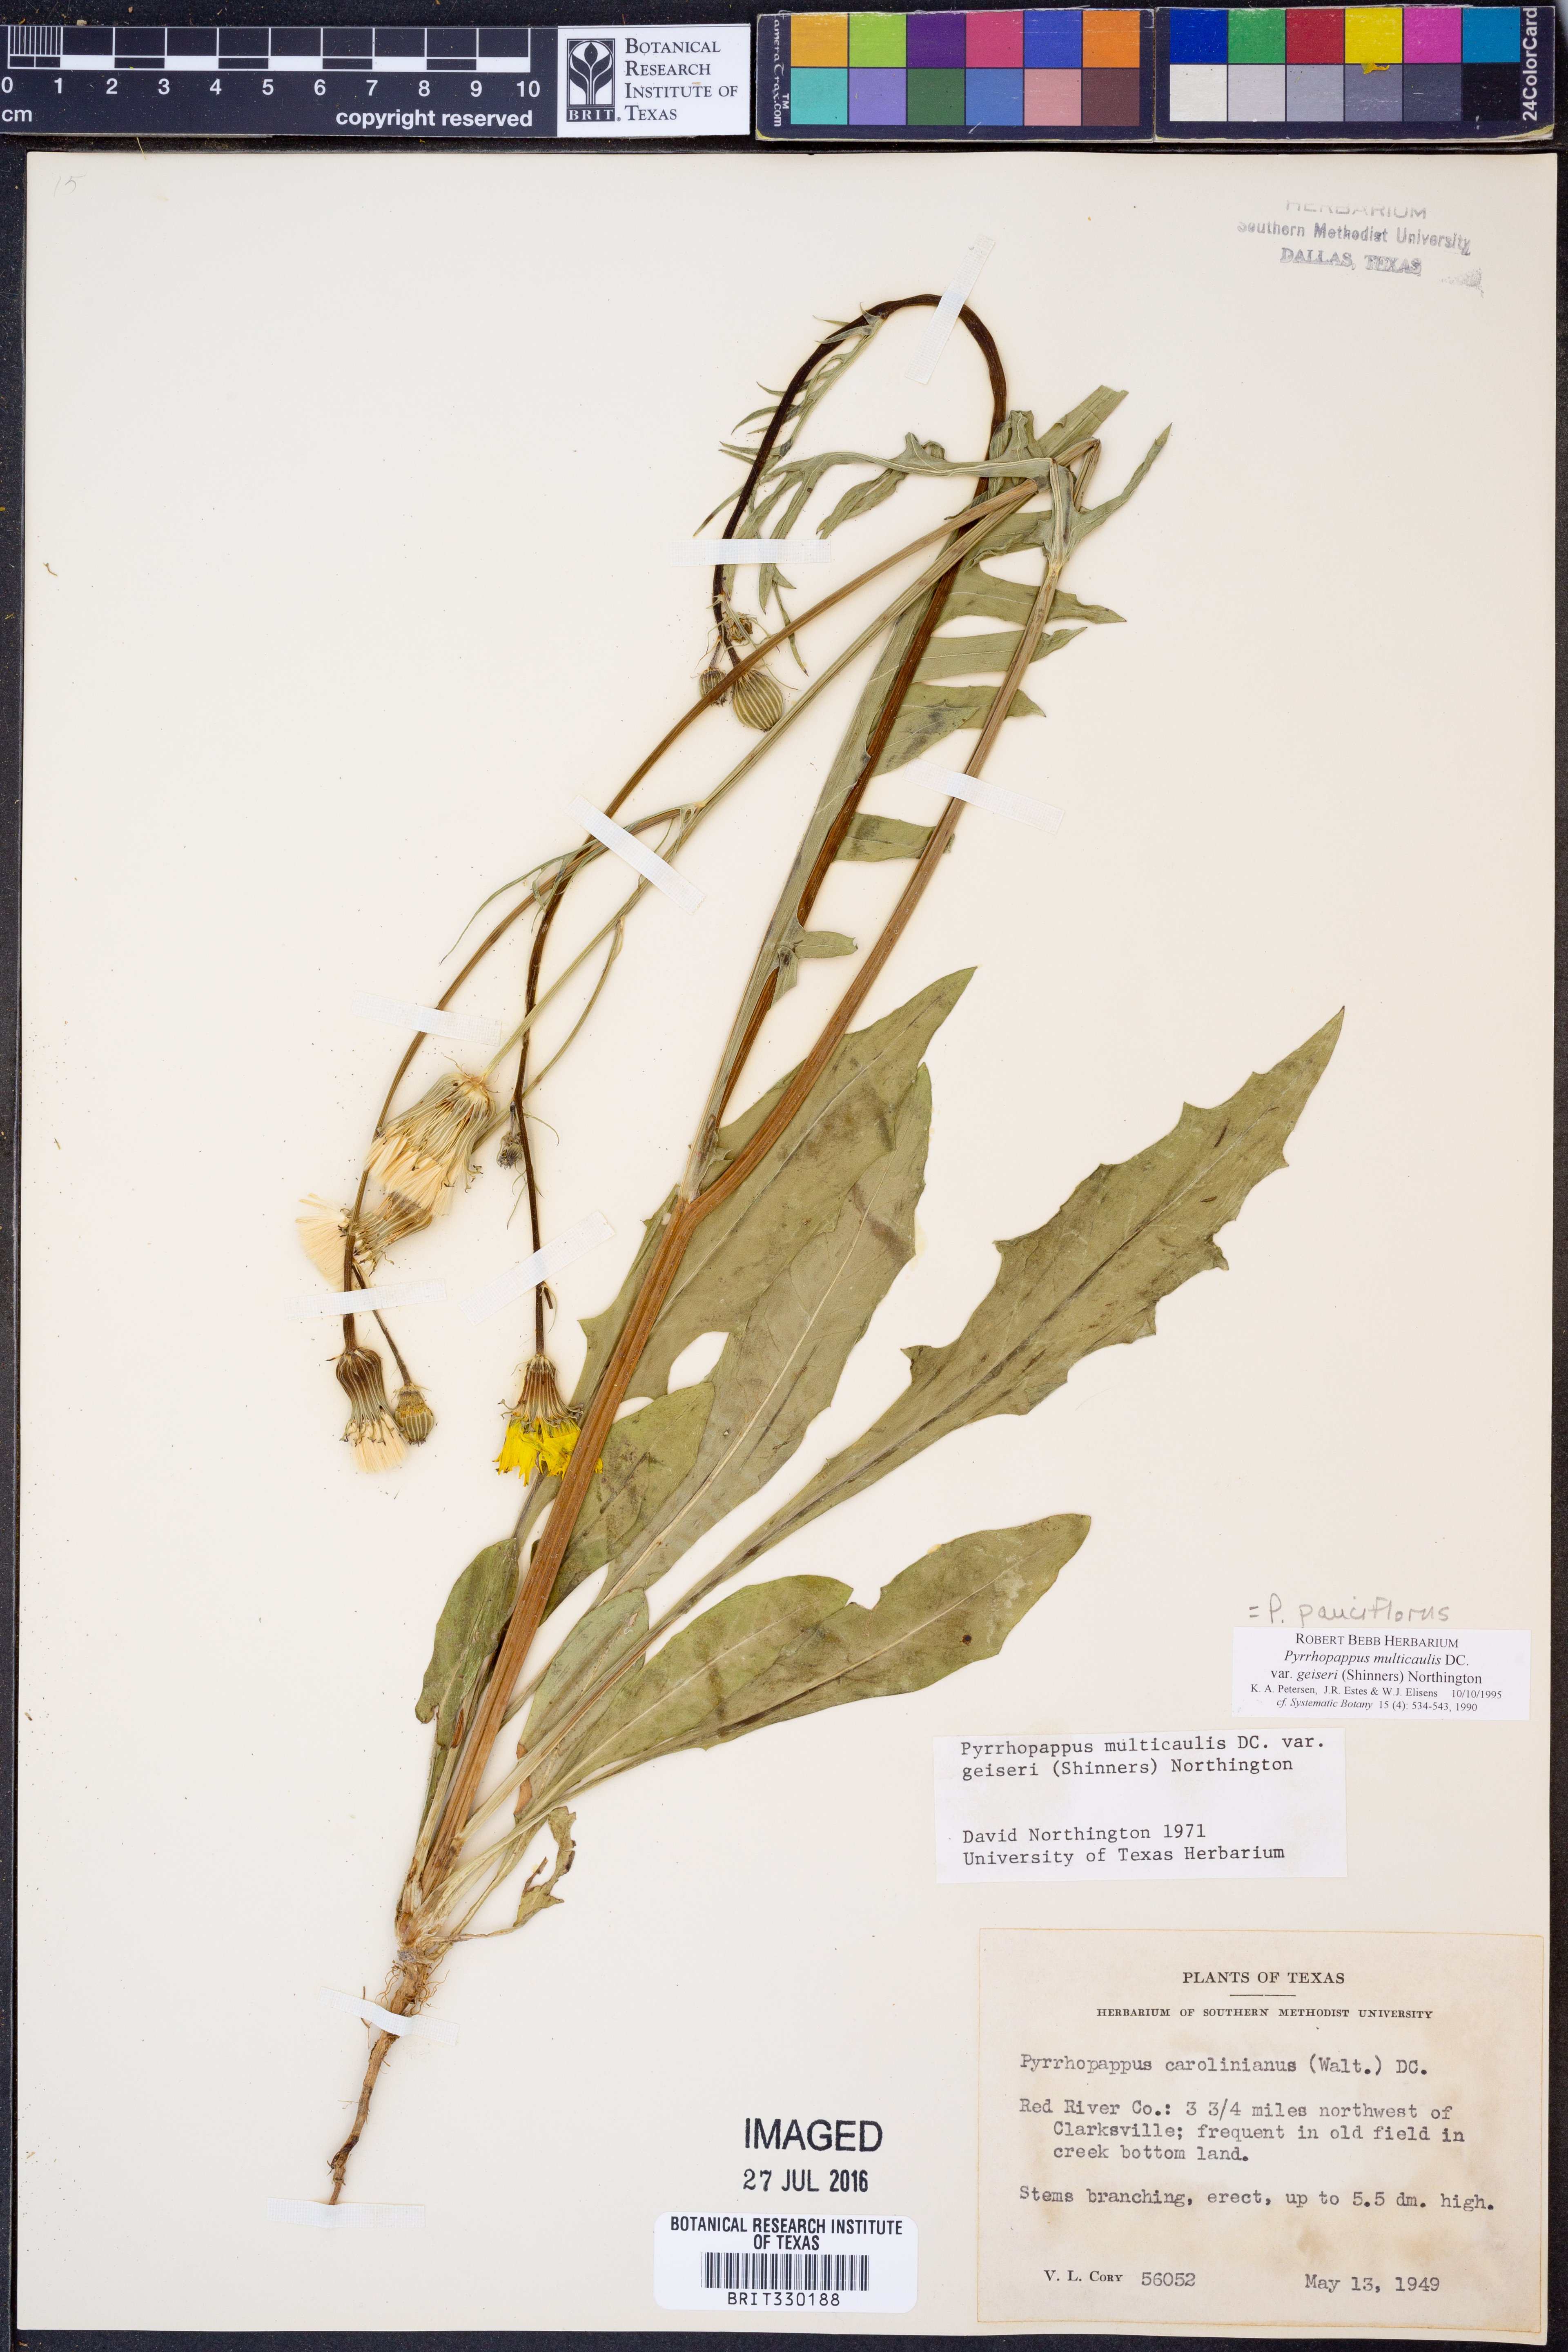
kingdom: Plantae
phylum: Tracheophyta
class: Magnoliopsida
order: Asterales
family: Asteraceae
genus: Pyrrhopappus
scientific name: Pyrrhopappus pauciflorus
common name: Texas false dandelion
